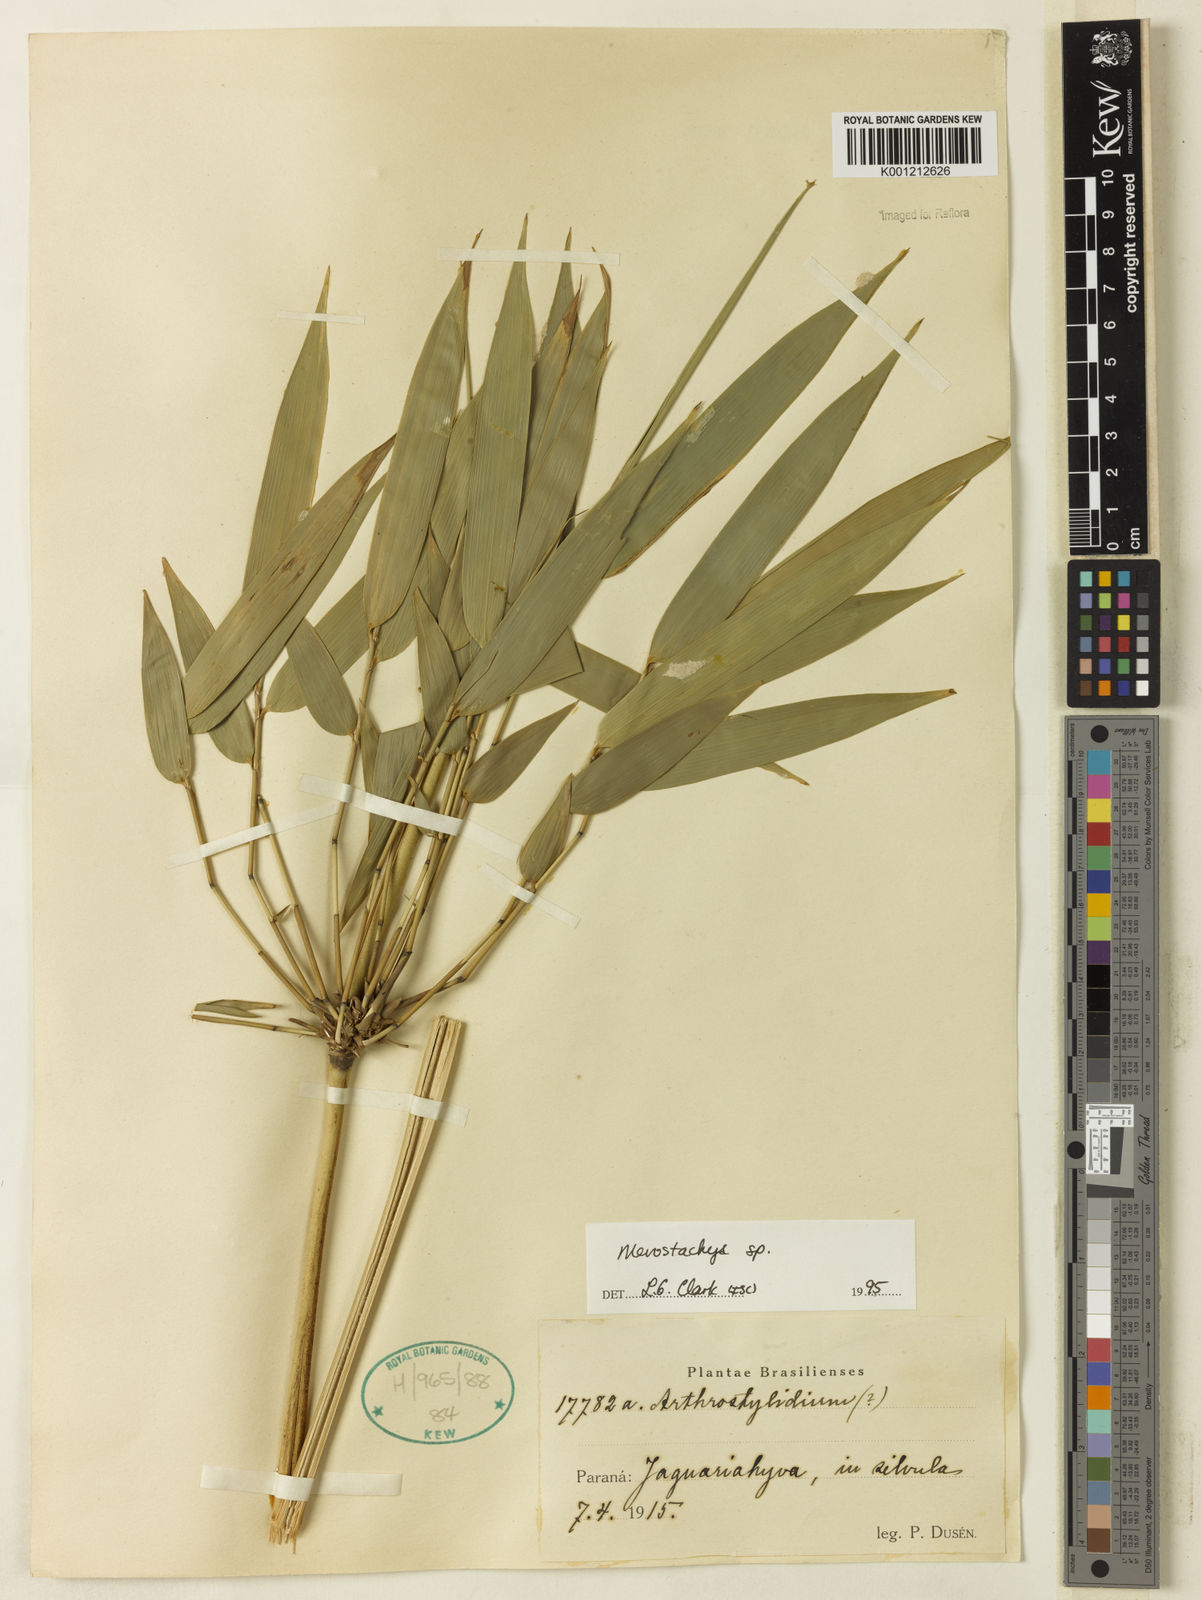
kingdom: Plantae
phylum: Tracheophyta
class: Liliopsida
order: Poales
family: Poaceae
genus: Merostachys
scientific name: Merostachys
